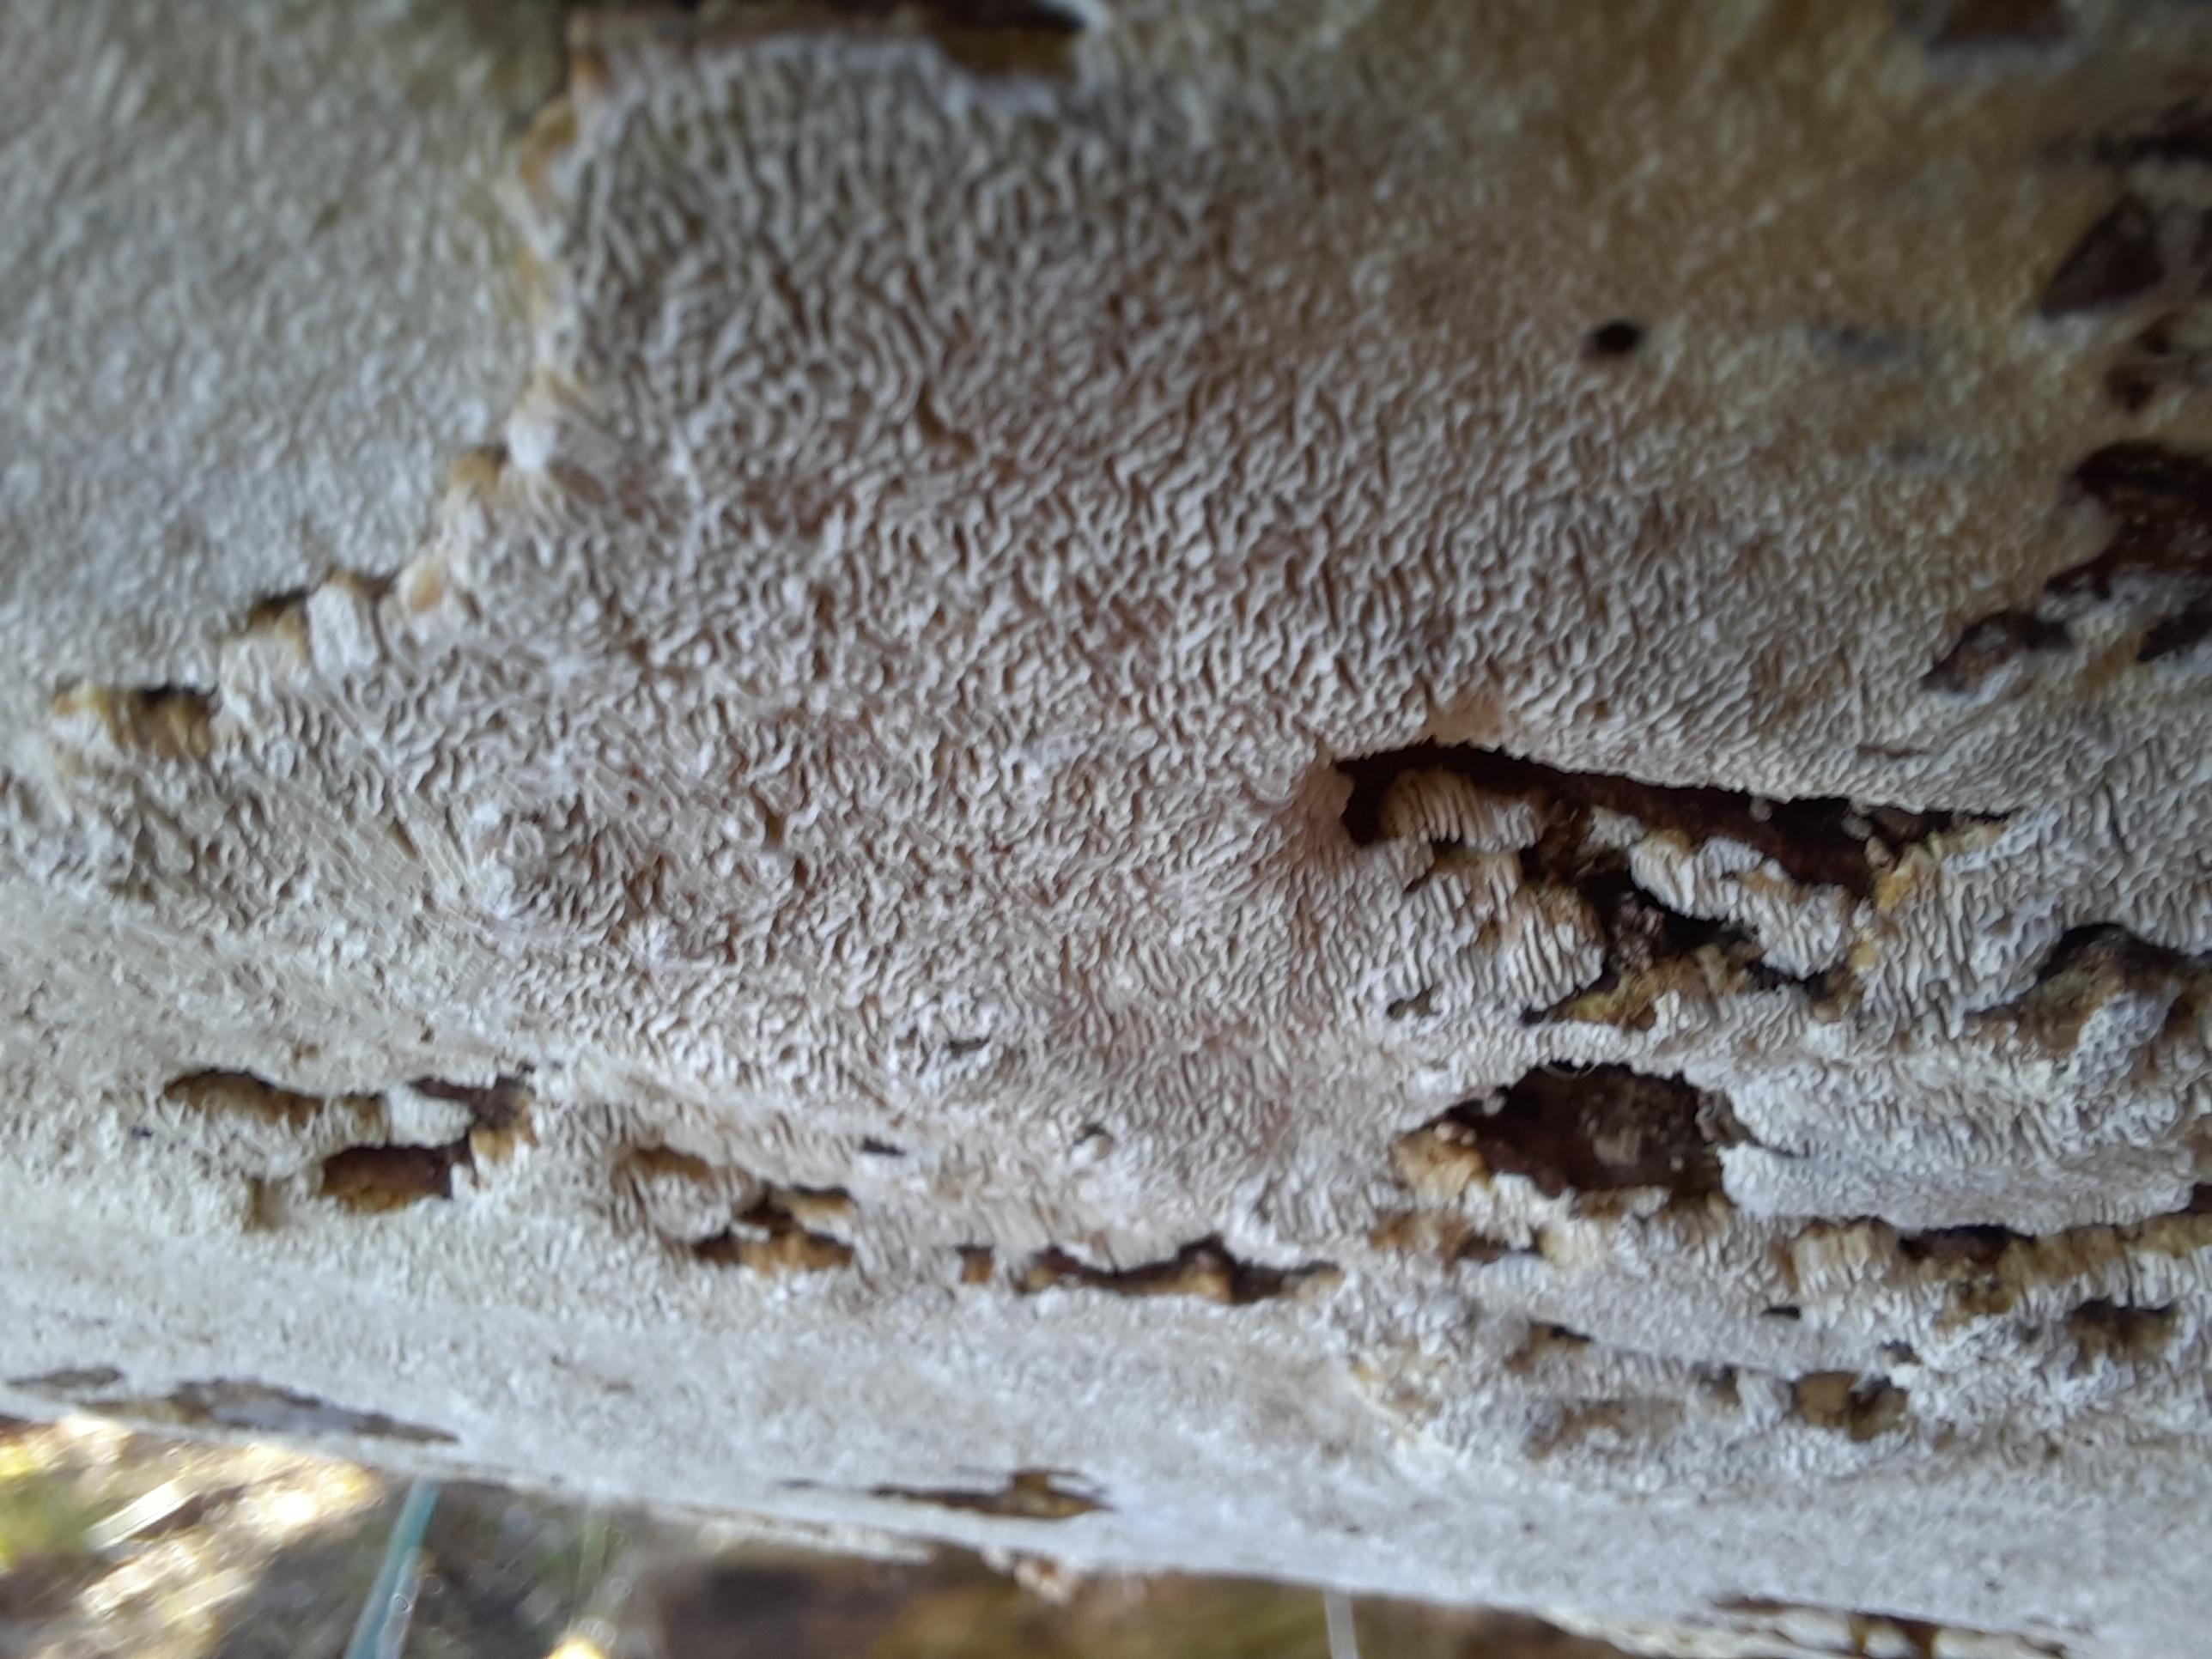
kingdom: Fungi
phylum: Basidiomycota
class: Agaricomycetes
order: Hymenochaetales
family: Schizoporaceae
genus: Xylodon
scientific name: Xylodon subtropicus
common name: labyrint-tandsvamp
